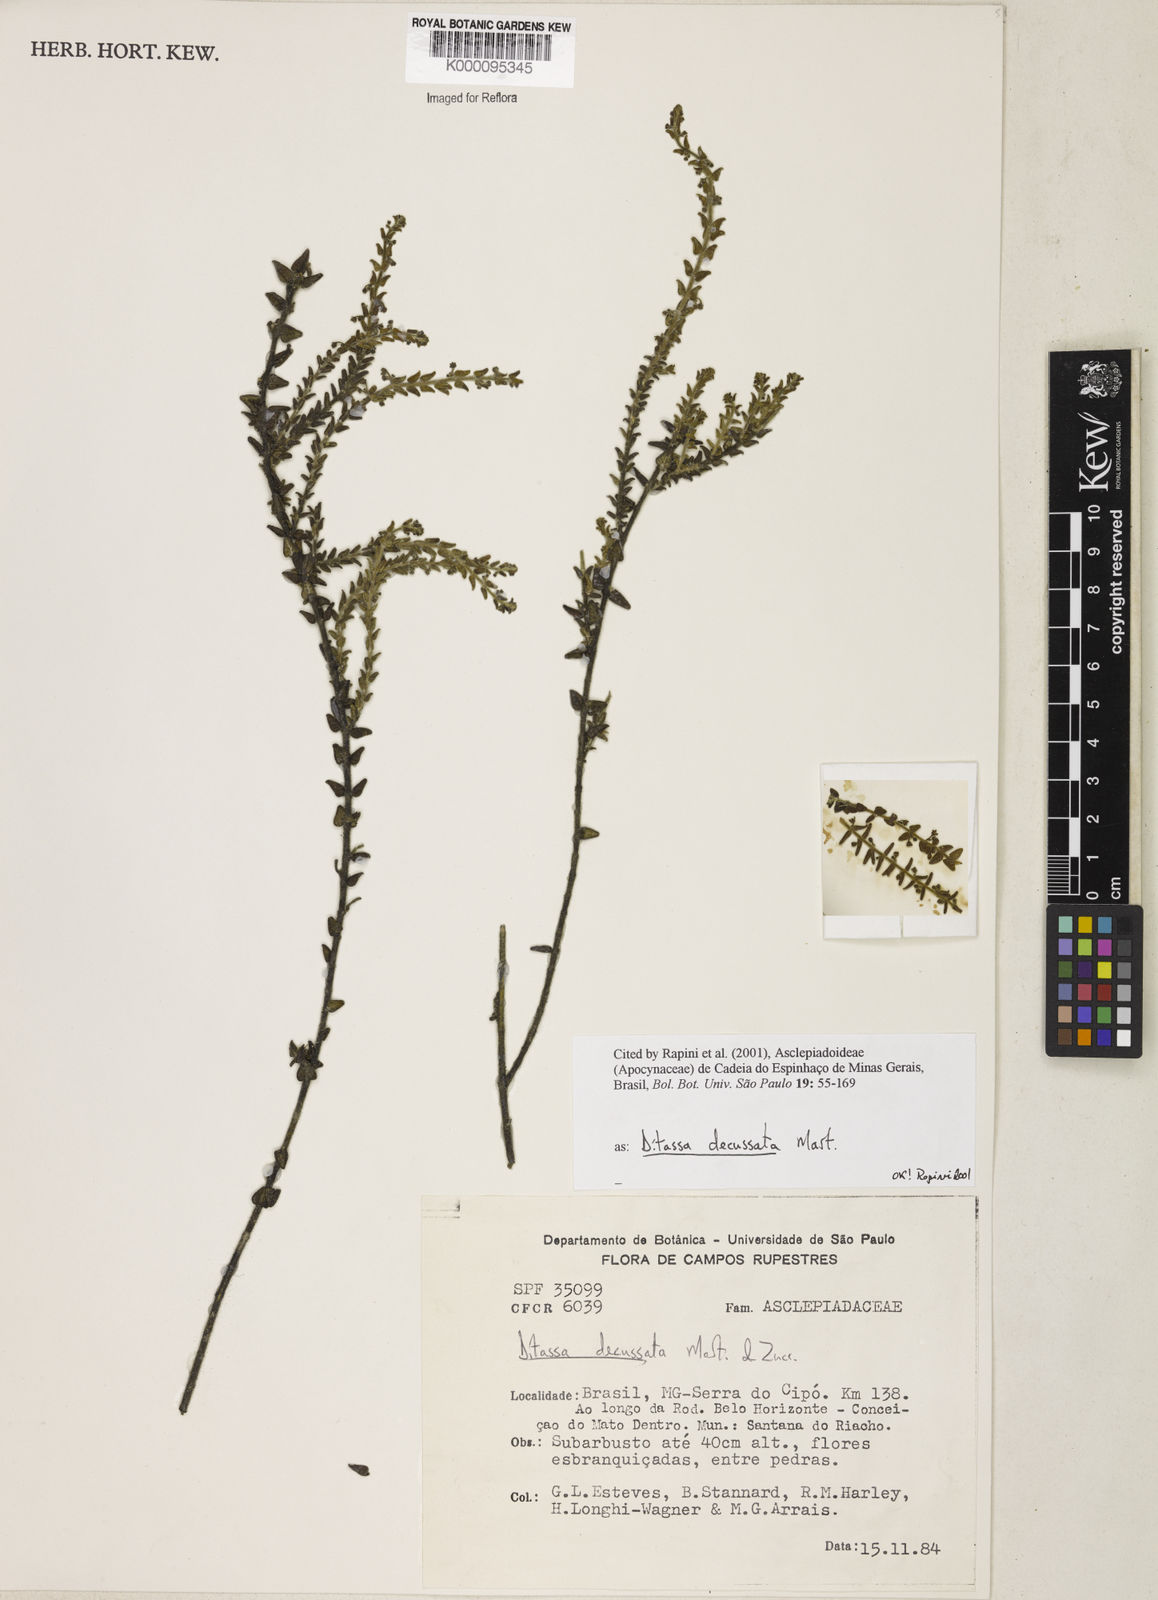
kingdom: Plantae
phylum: Tracheophyta
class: Magnoliopsida
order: Gentianales
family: Apocynaceae
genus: Minaria
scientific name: Minaria decussata
